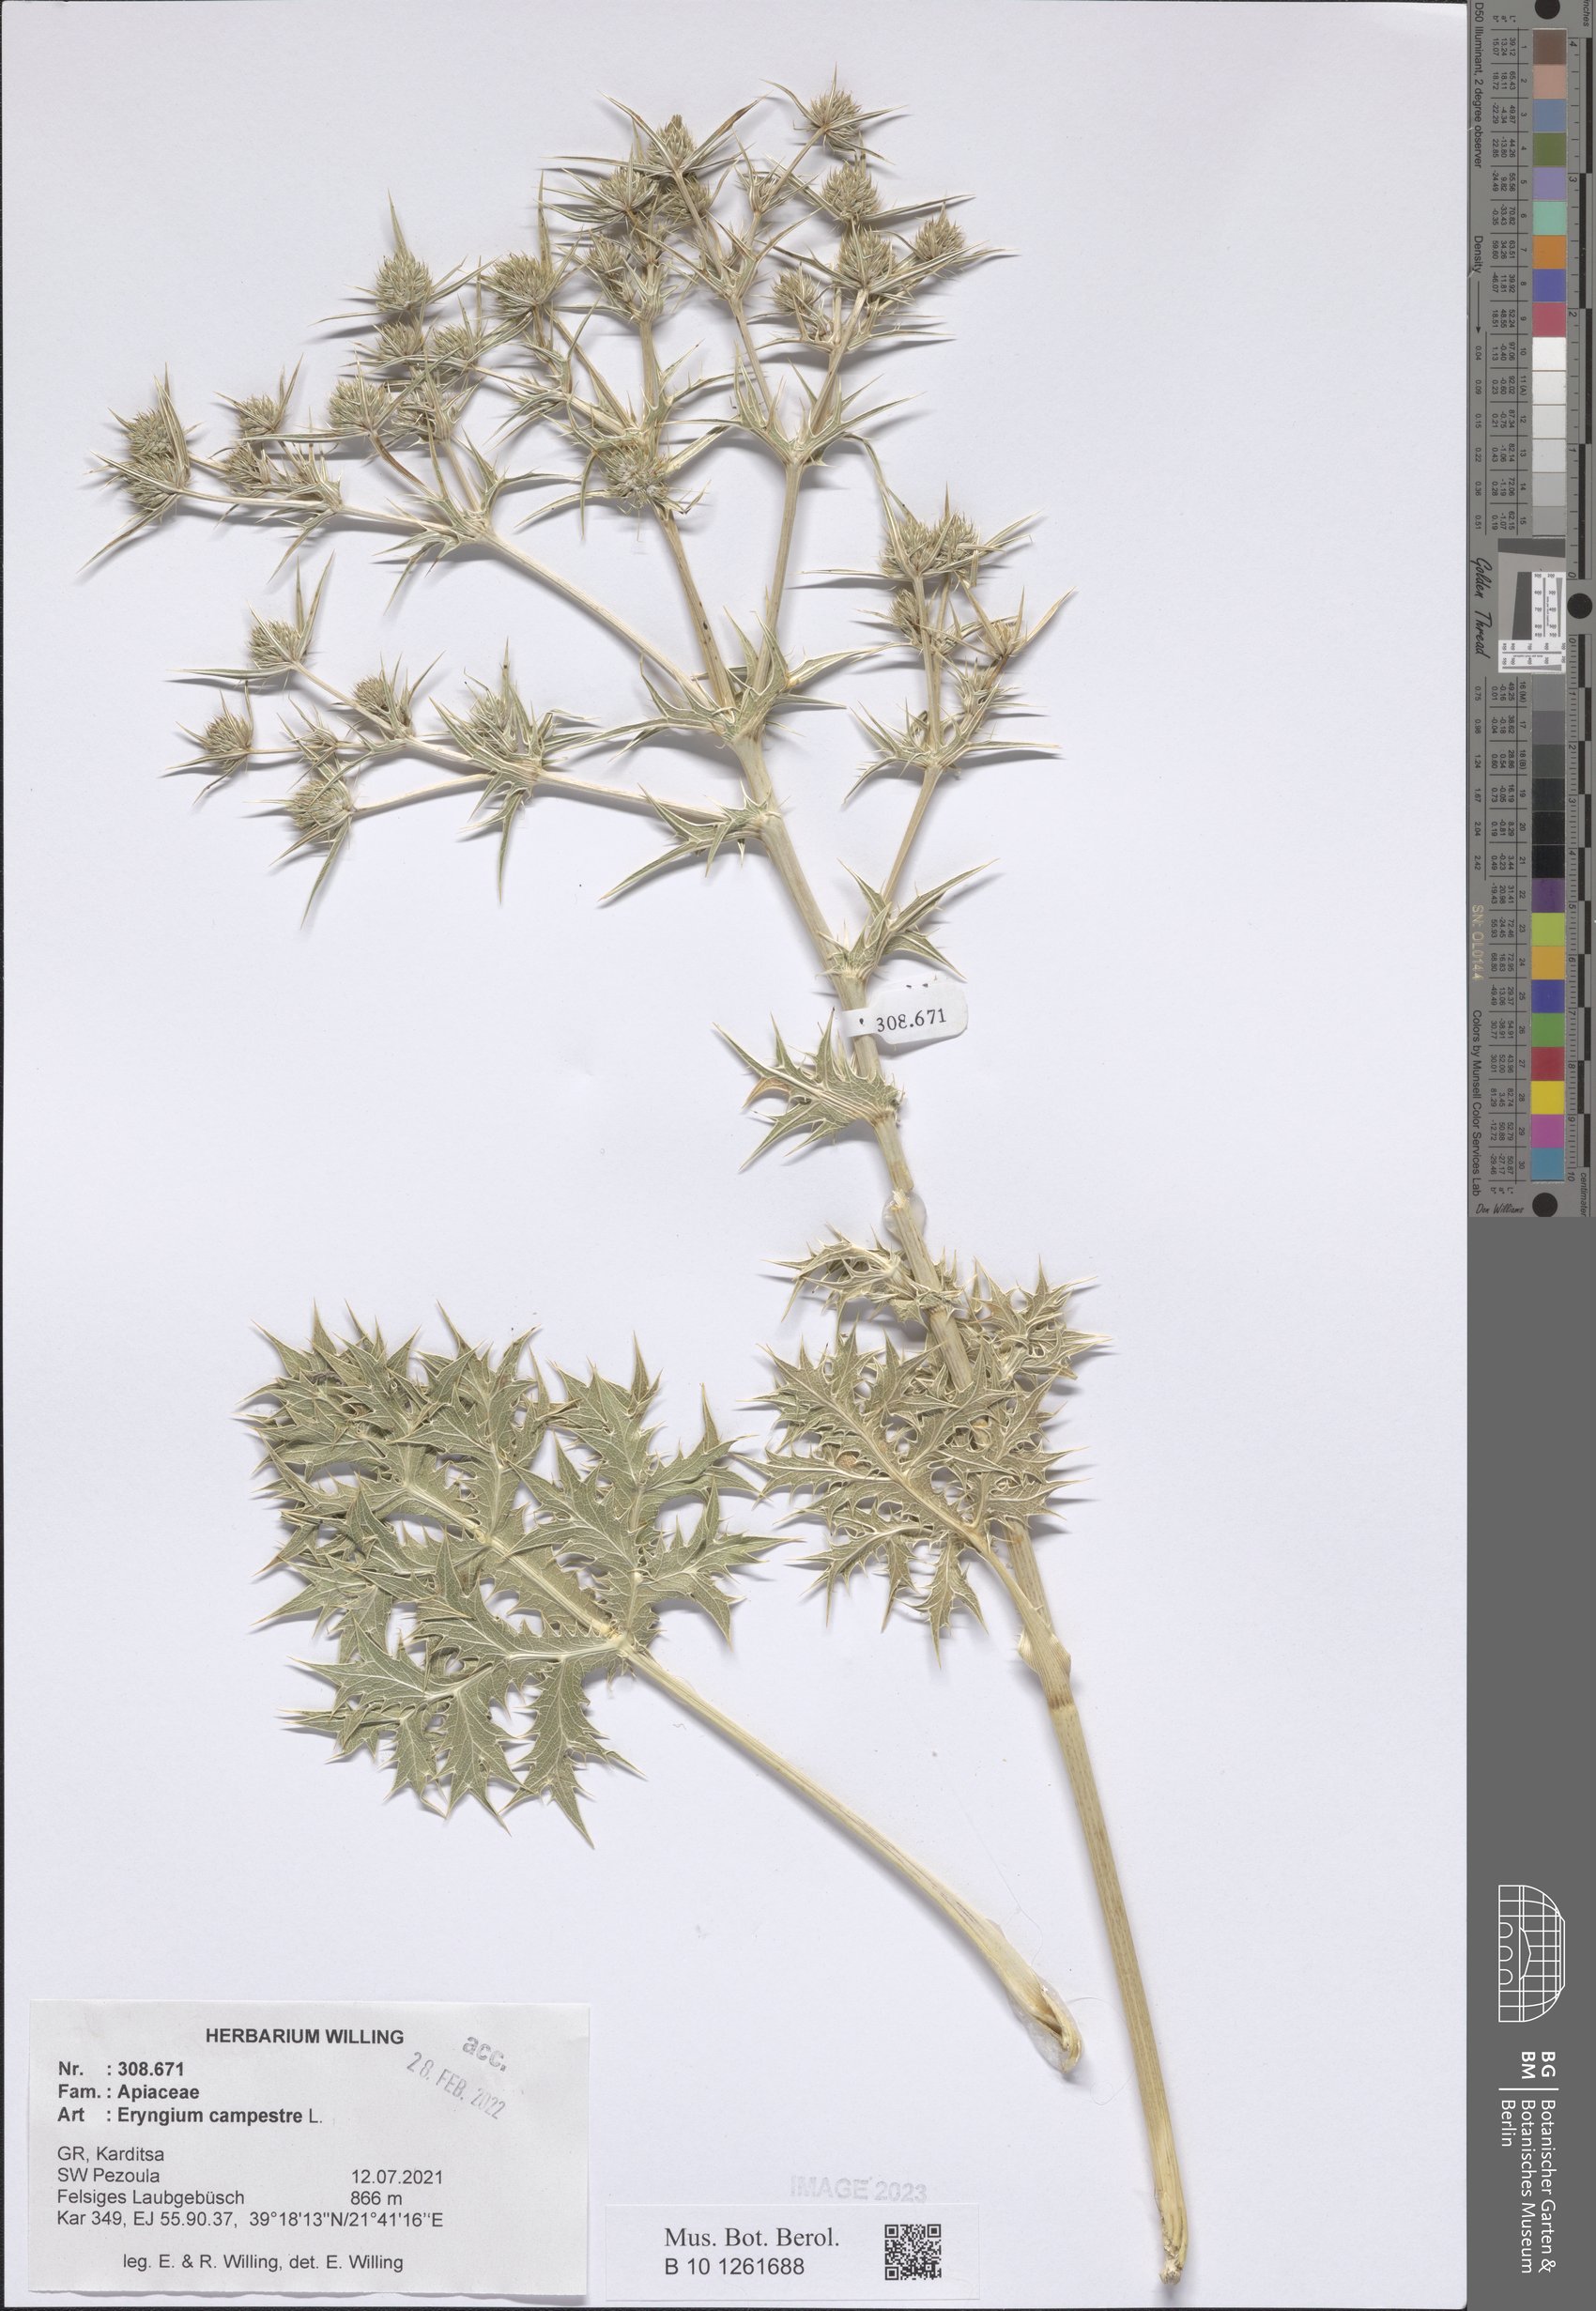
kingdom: Plantae
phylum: Tracheophyta
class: Magnoliopsida
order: Apiales
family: Apiaceae
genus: Eryngium
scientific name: Eryngium campestre
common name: Field eryngo
